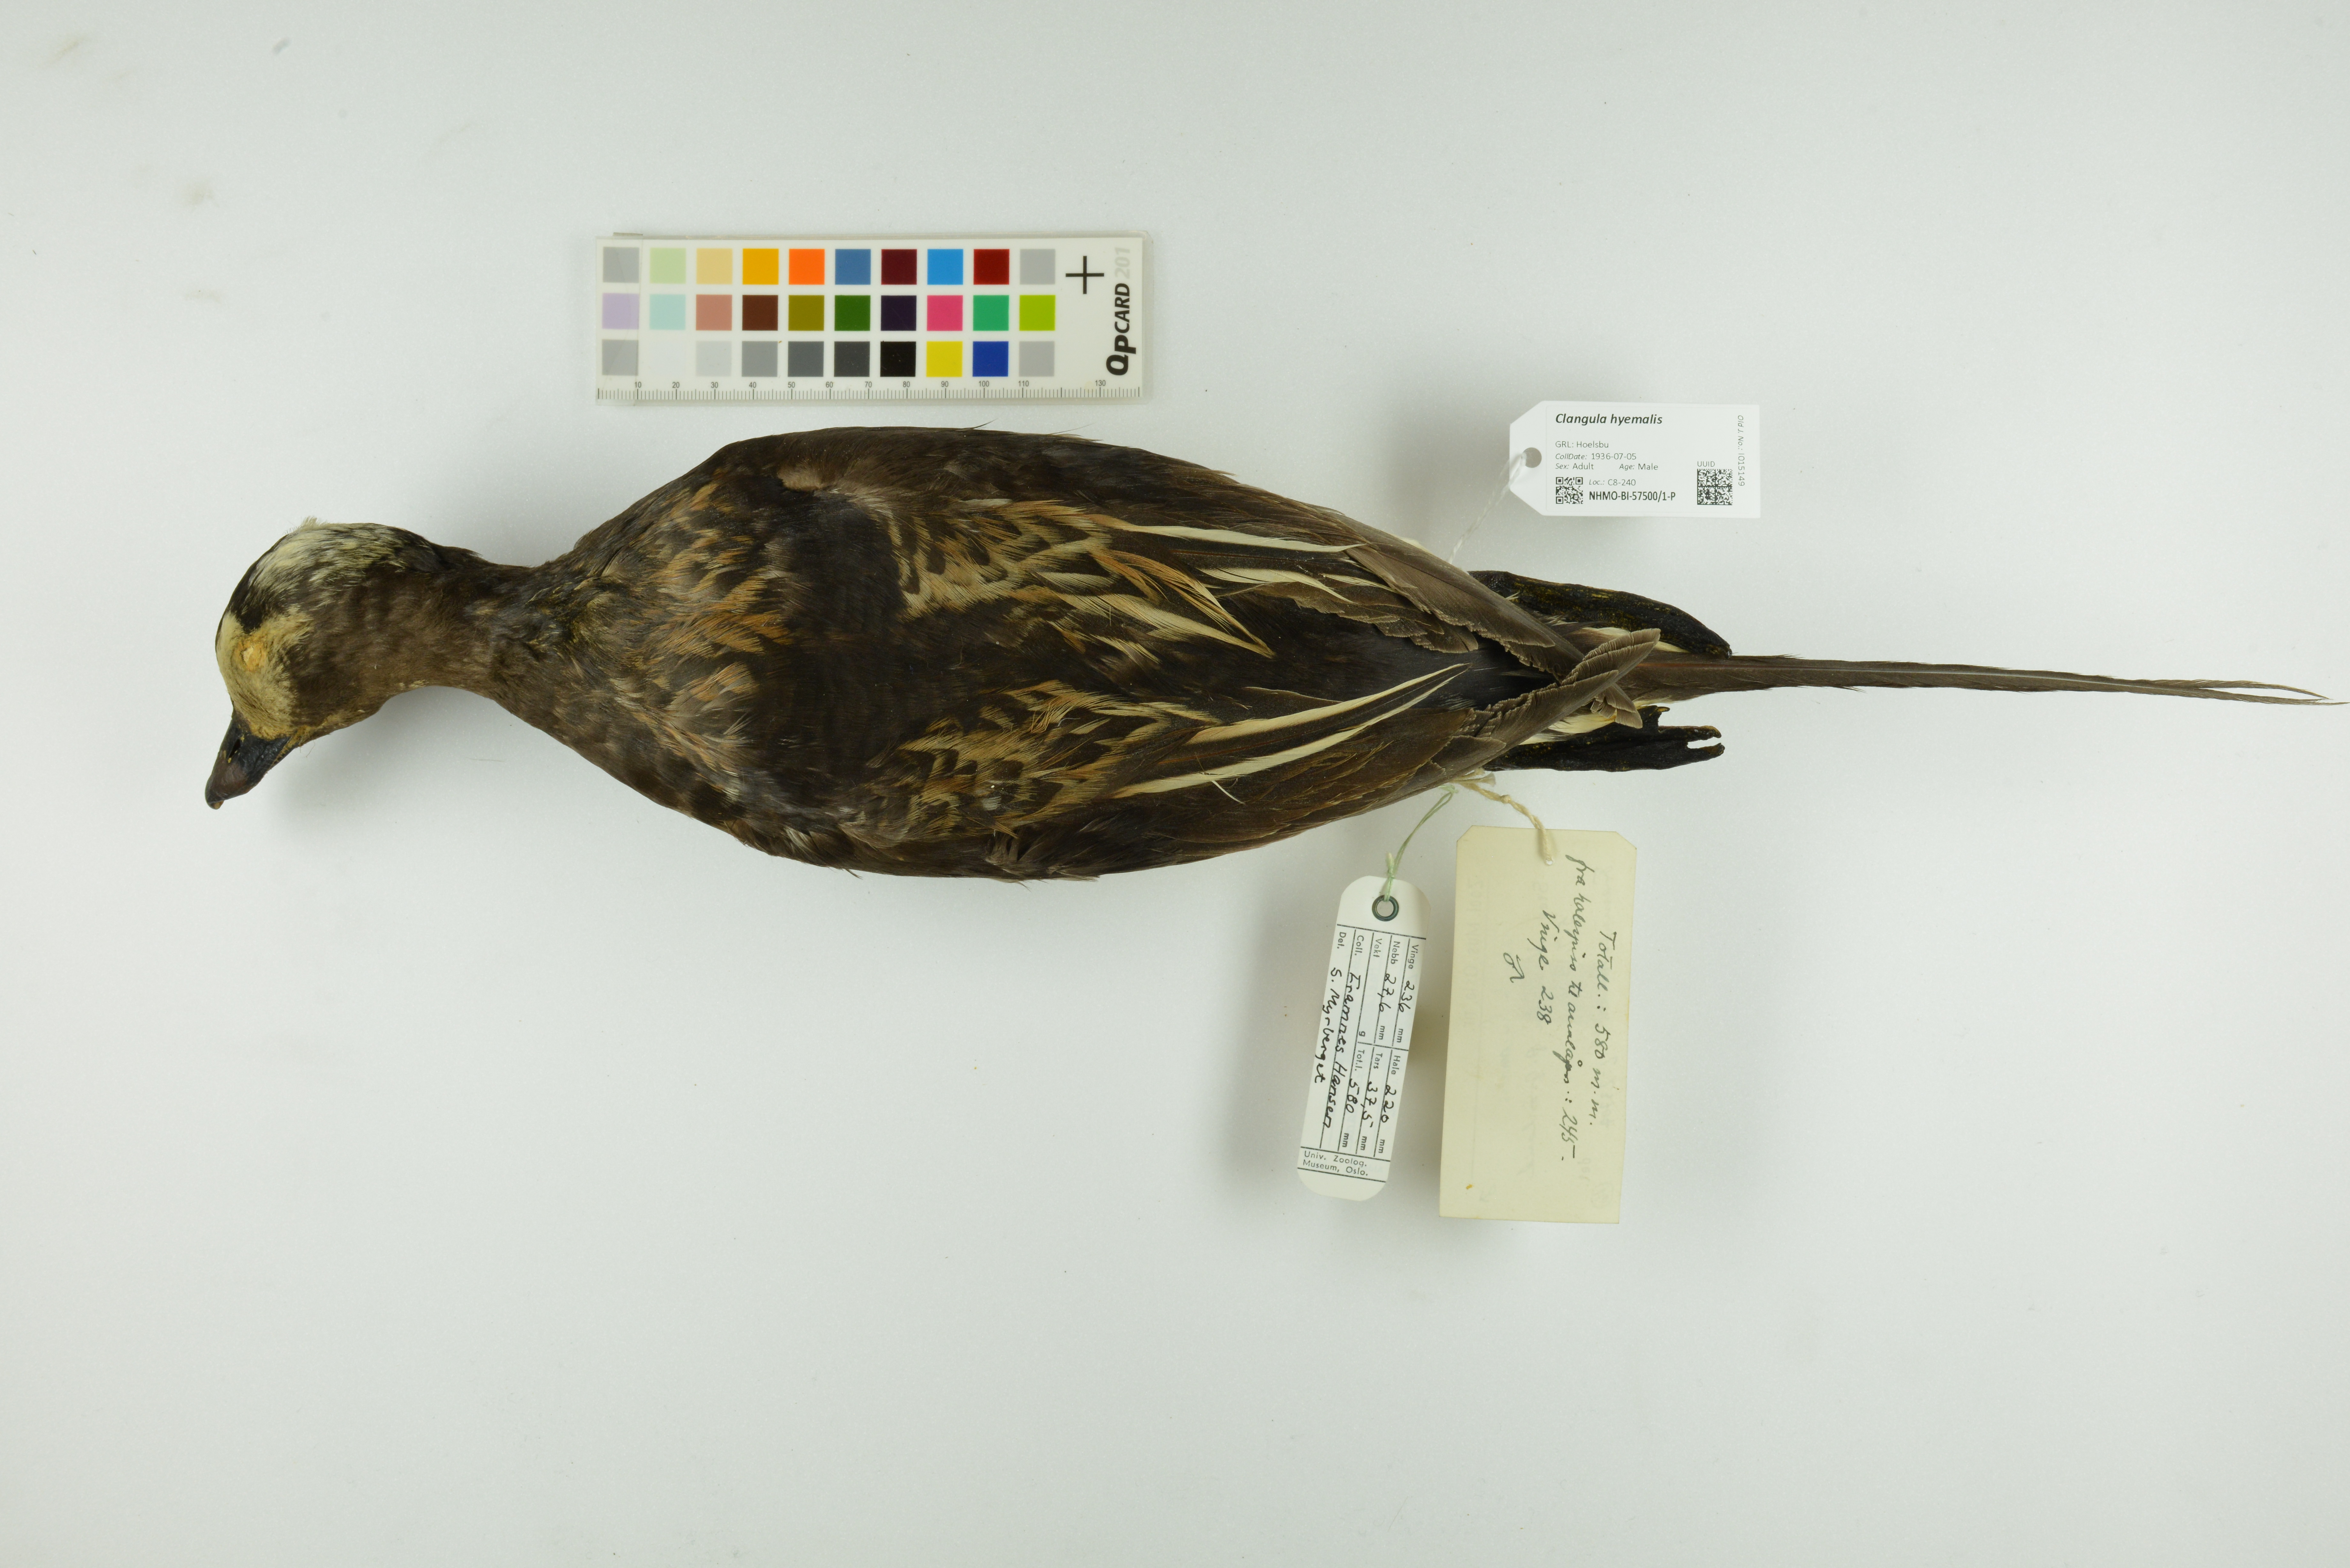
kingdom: Animalia
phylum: Chordata
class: Aves
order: Anseriformes
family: Anatidae
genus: Clangula
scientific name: Clangula hyemalis
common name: Long-tailed duck
